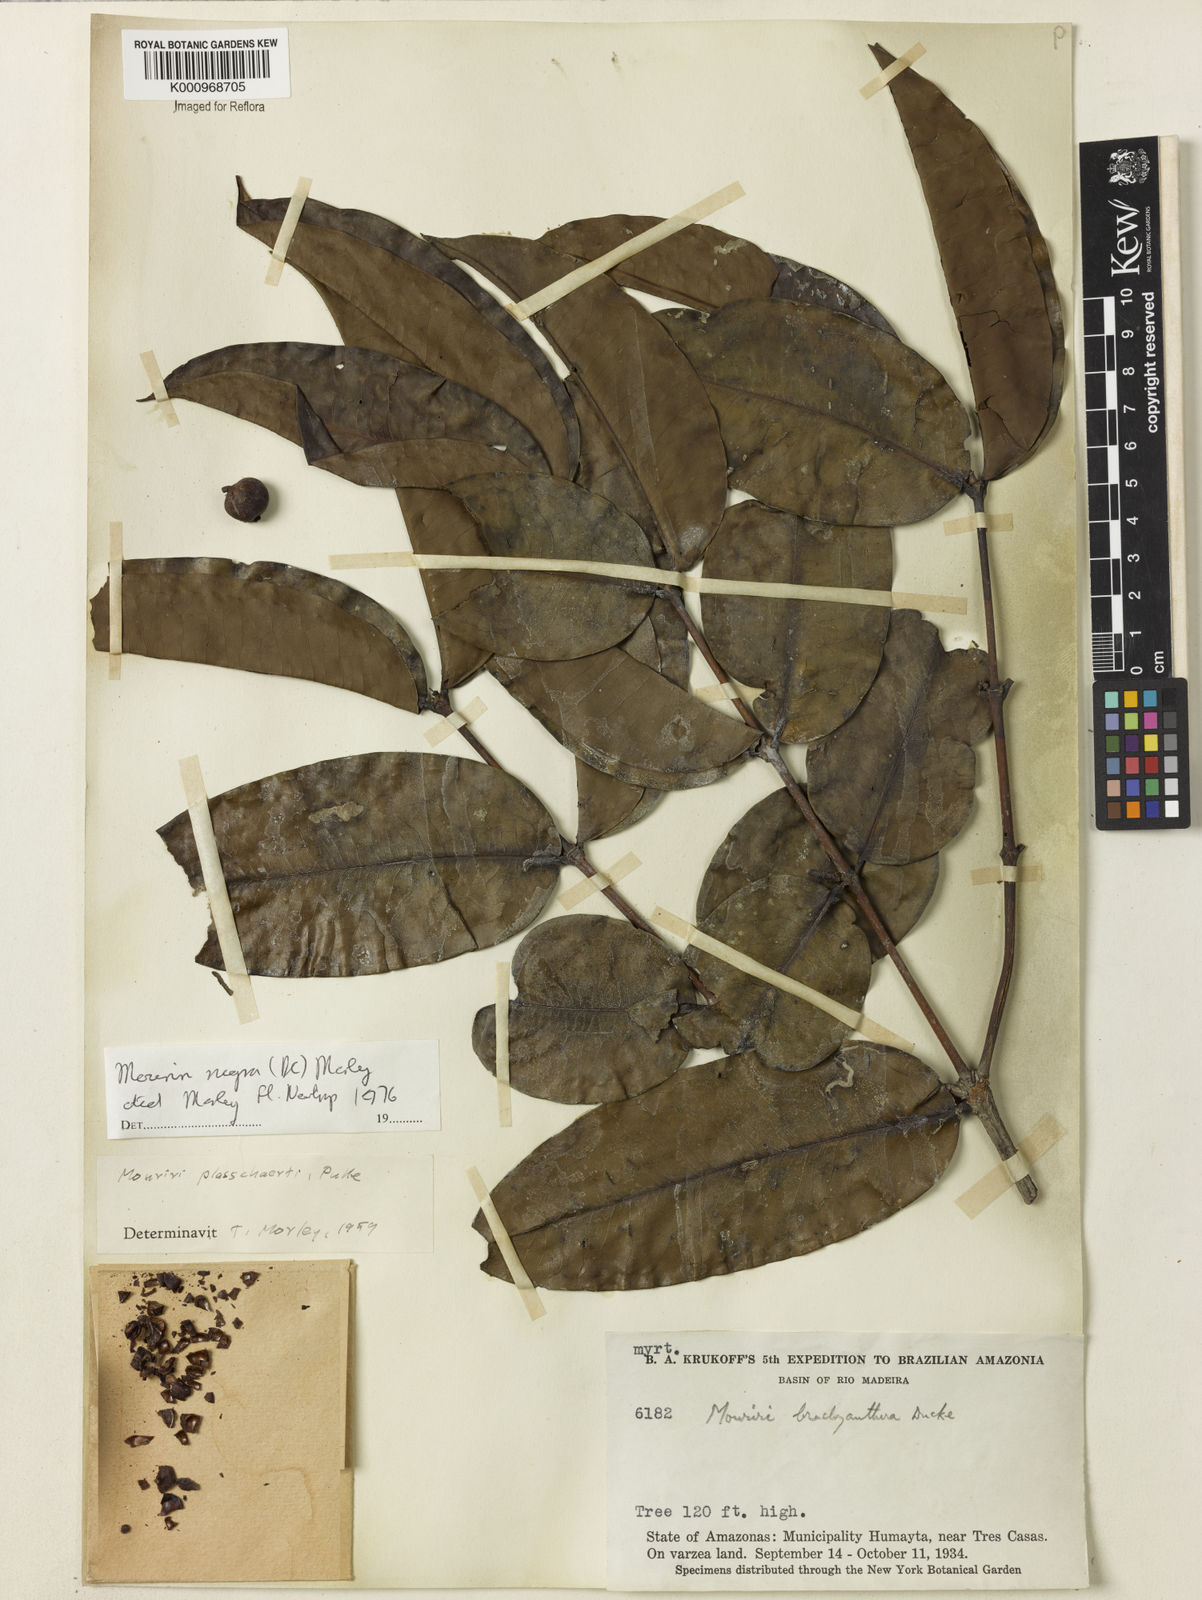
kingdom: Plantae
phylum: Tracheophyta
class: Magnoliopsida
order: Myrtales
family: Melastomataceae
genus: Mouriri
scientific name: Mouriri nigra
